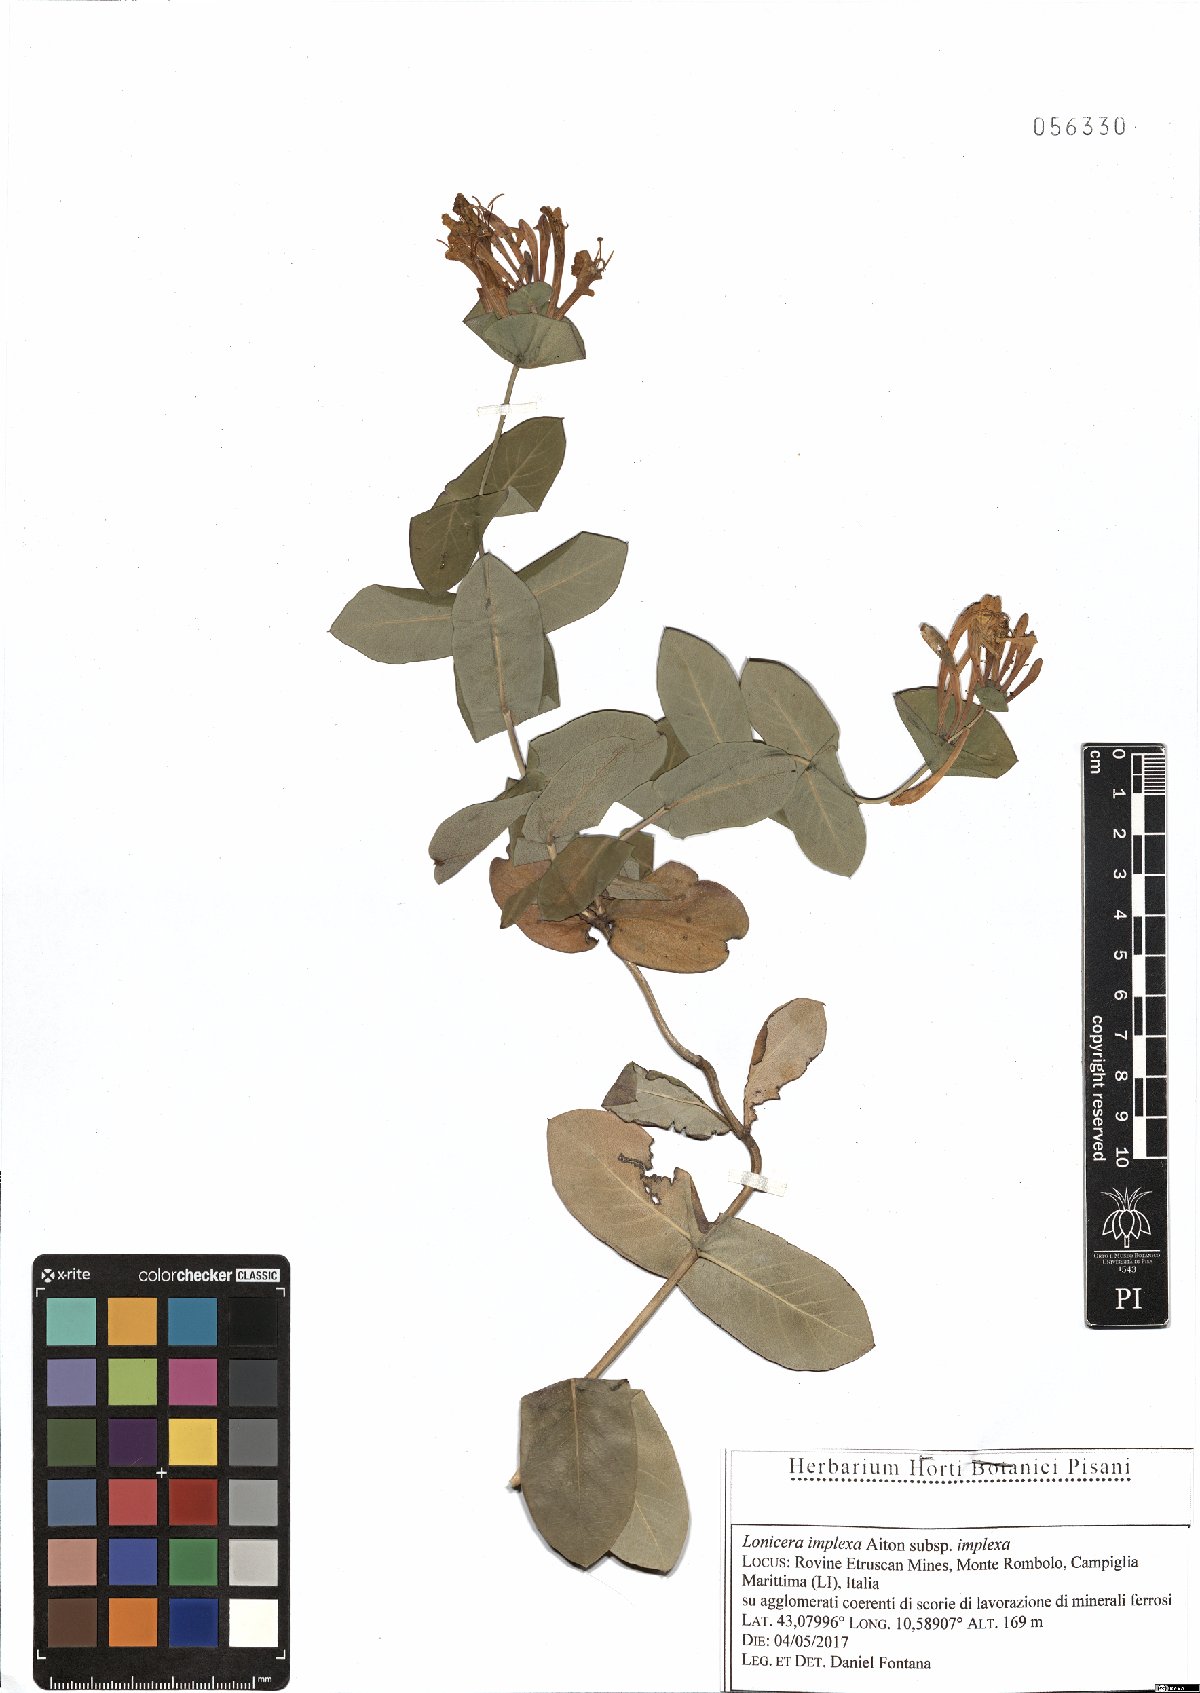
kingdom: Plantae
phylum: Tracheophyta
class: Magnoliopsida
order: Dipsacales
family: Caprifoliaceae
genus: Lonicera
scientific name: Lonicera implexa
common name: Minorca honeysuckle
